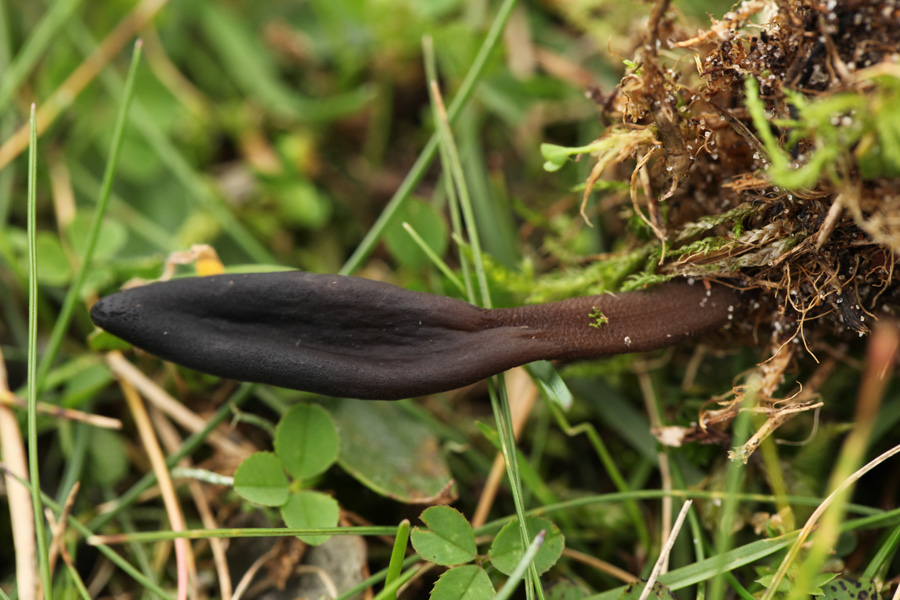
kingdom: Fungi
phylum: Ascomycota
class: Geoglossomycetes
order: Geoglossales
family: Geoglossaceae
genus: Hemileucoglossum
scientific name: Hemileucoglossum elongatum
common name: småsporet jordtunge
